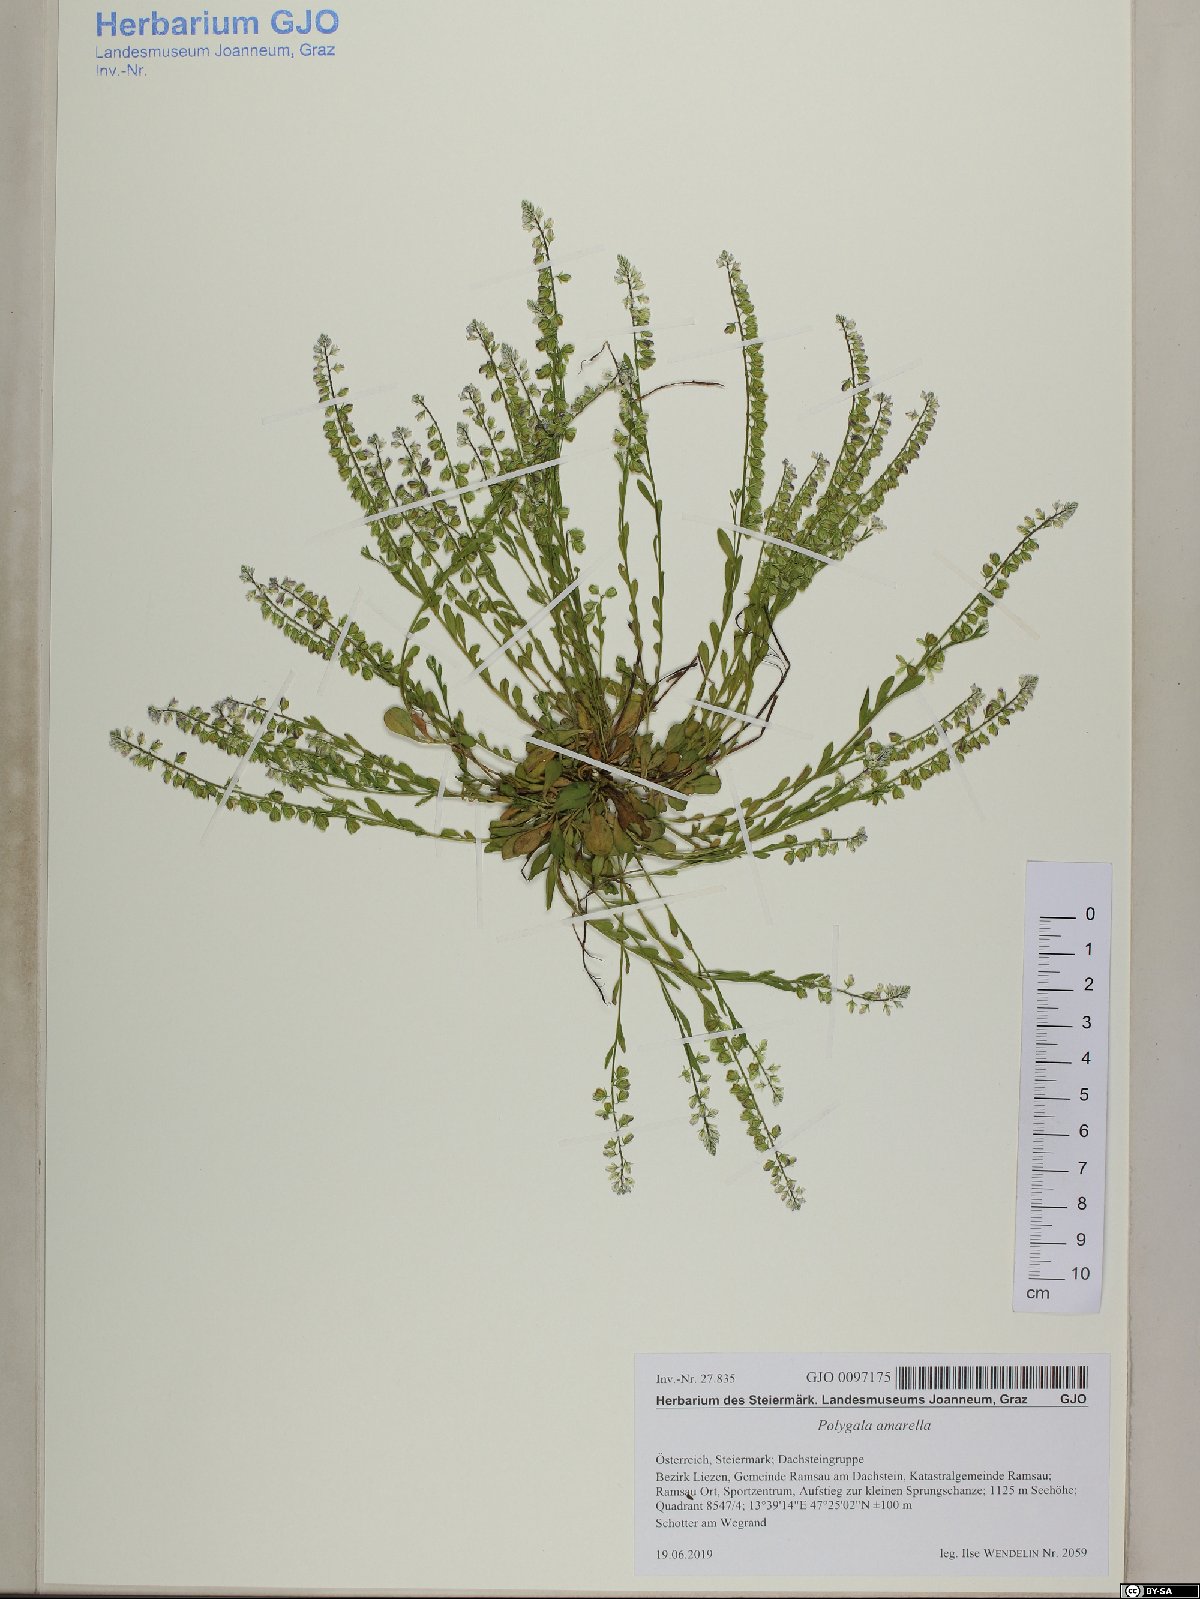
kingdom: Plantae
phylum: Tracheophyta
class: Magnoliopsida
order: Fabales
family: Polygalaceae
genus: Polygala
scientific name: Polygala amarella
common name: Dwarf milkwort
